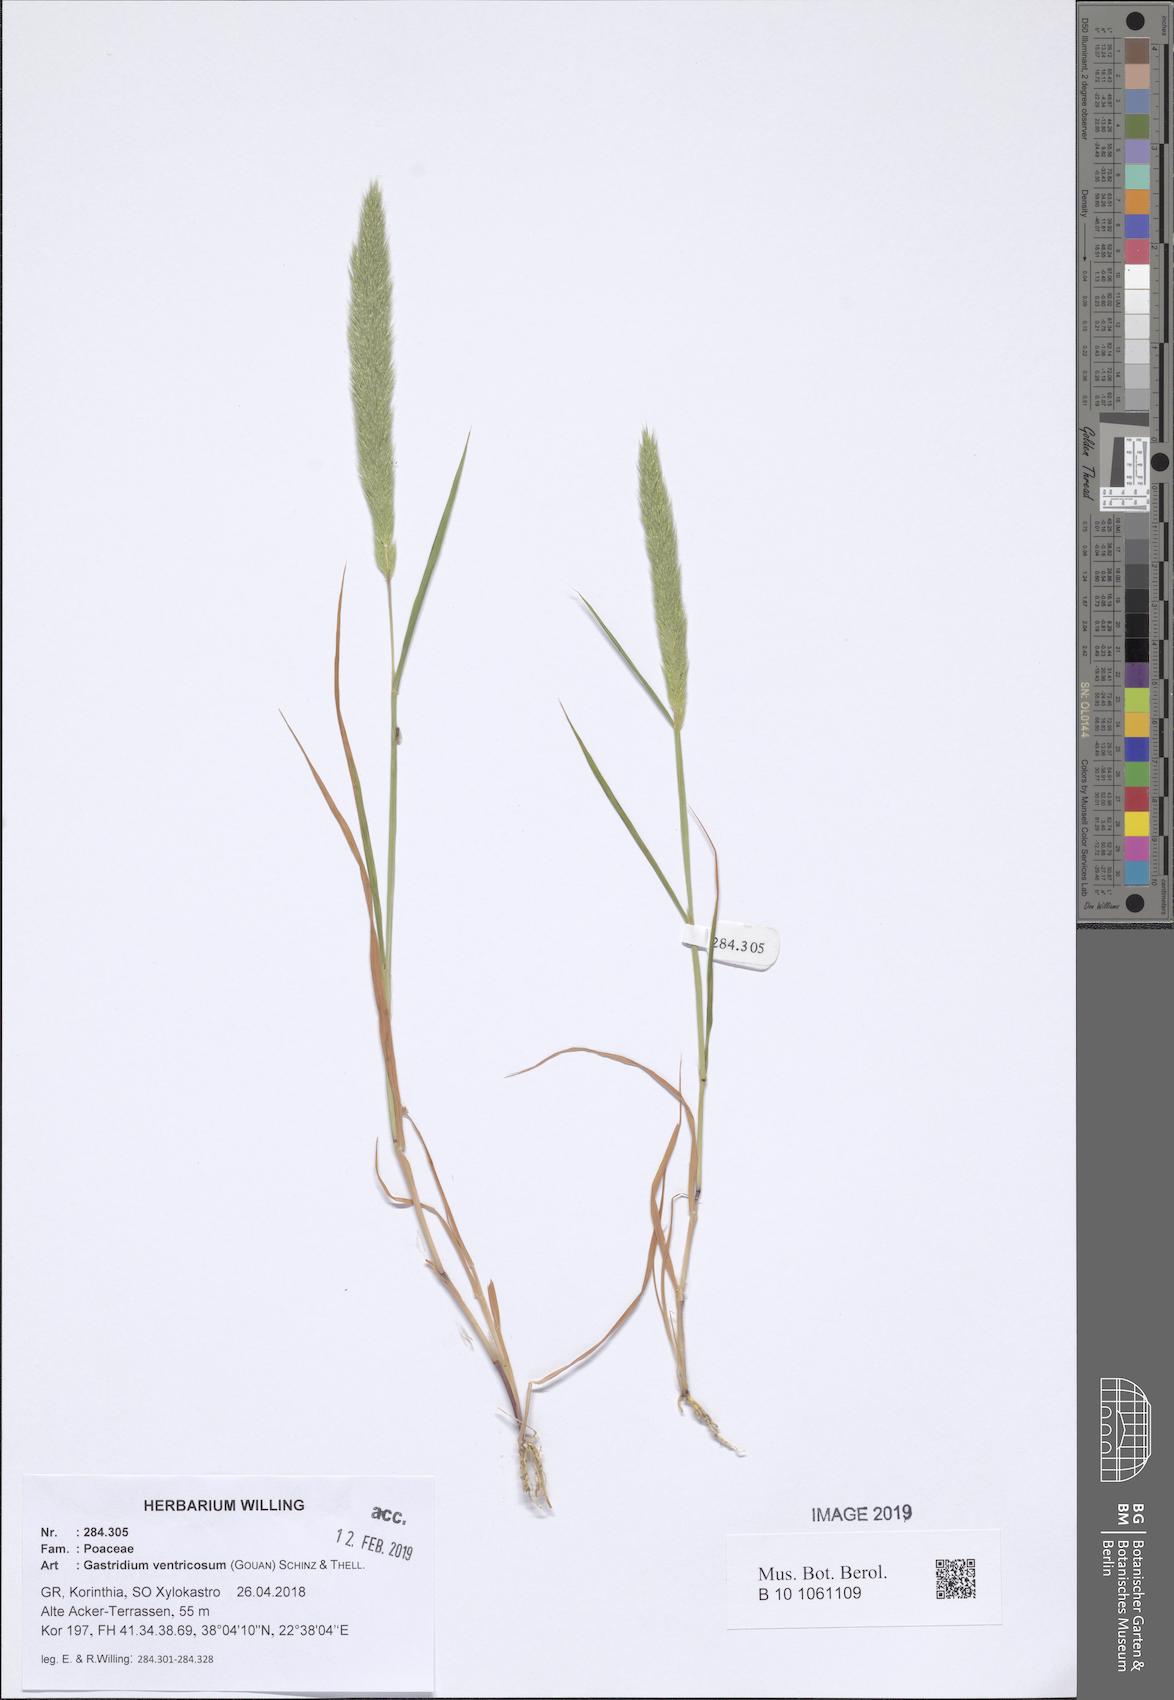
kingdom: Plantae
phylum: Tracheophyta
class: Liliopsida
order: Poales
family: Poaceae
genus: Gastridium
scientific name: Gastridium ventricosum
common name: Nit-grass
